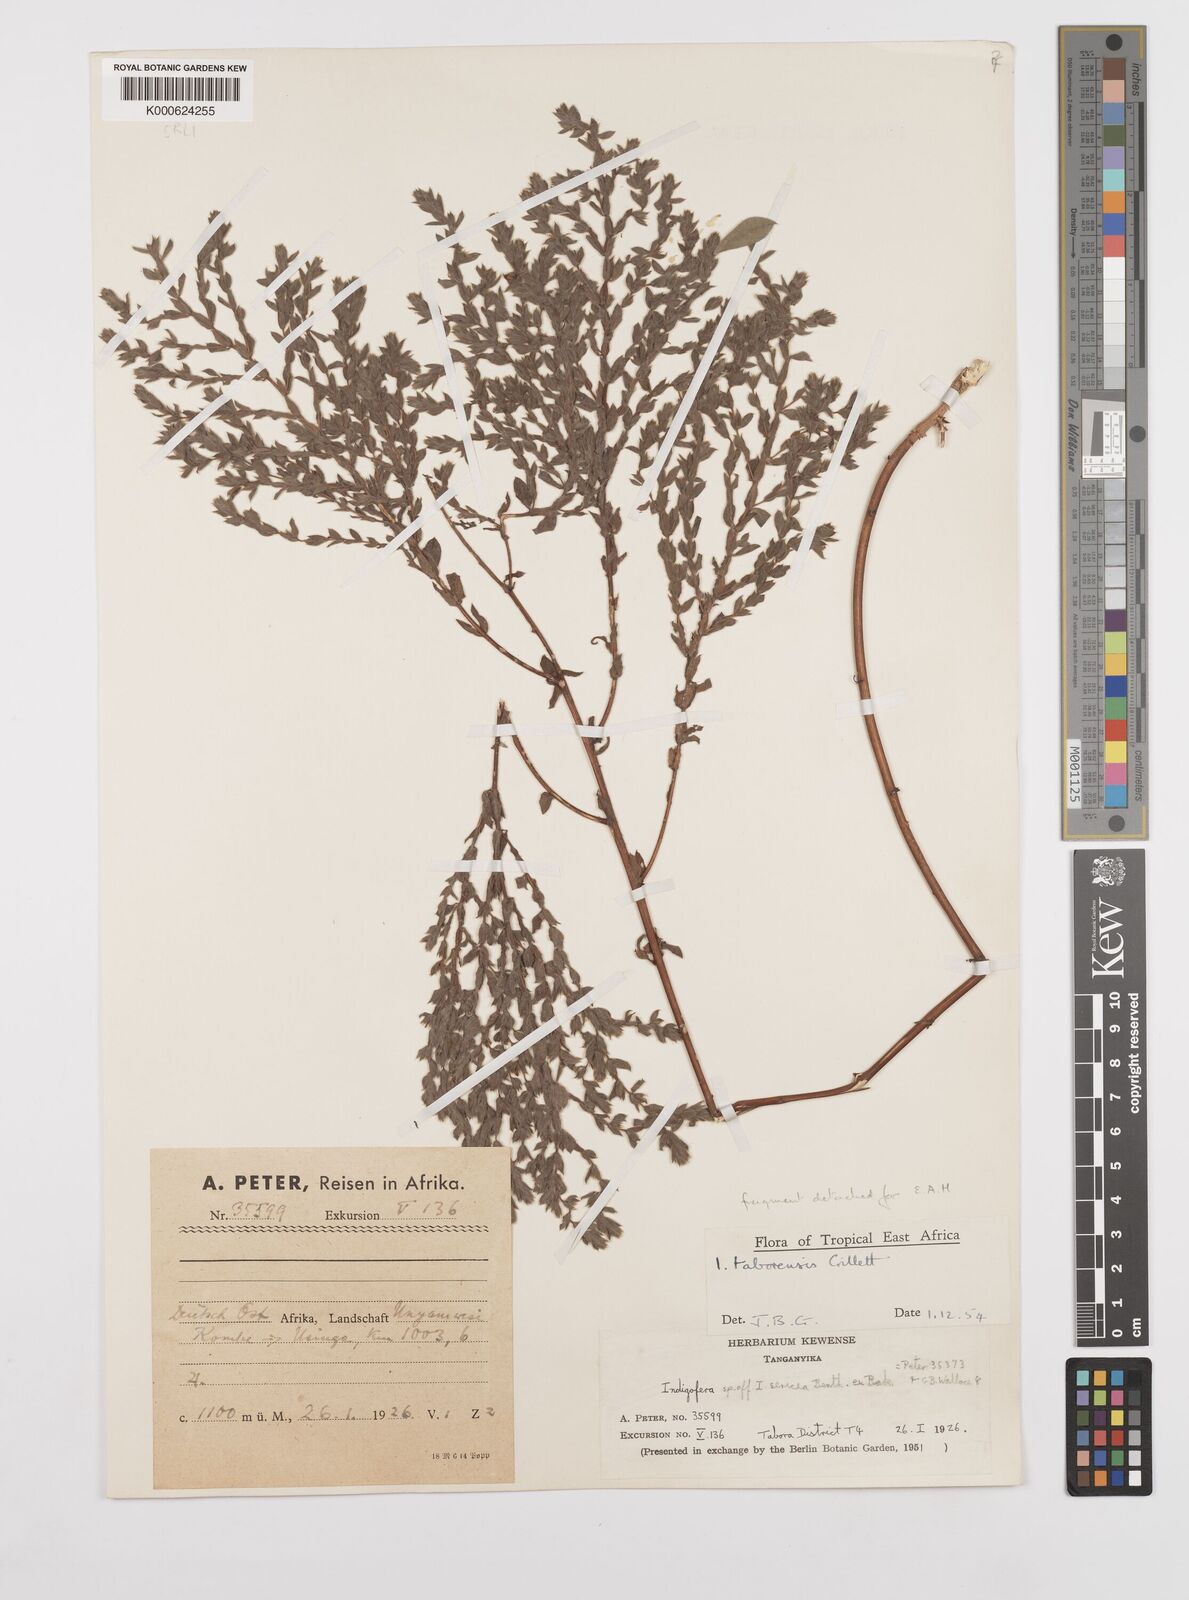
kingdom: Plantae
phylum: Tracheophyta
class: Magnoliopsida
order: Fabales
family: Fabaceae
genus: Indigofera
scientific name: Indigofera taborensis
